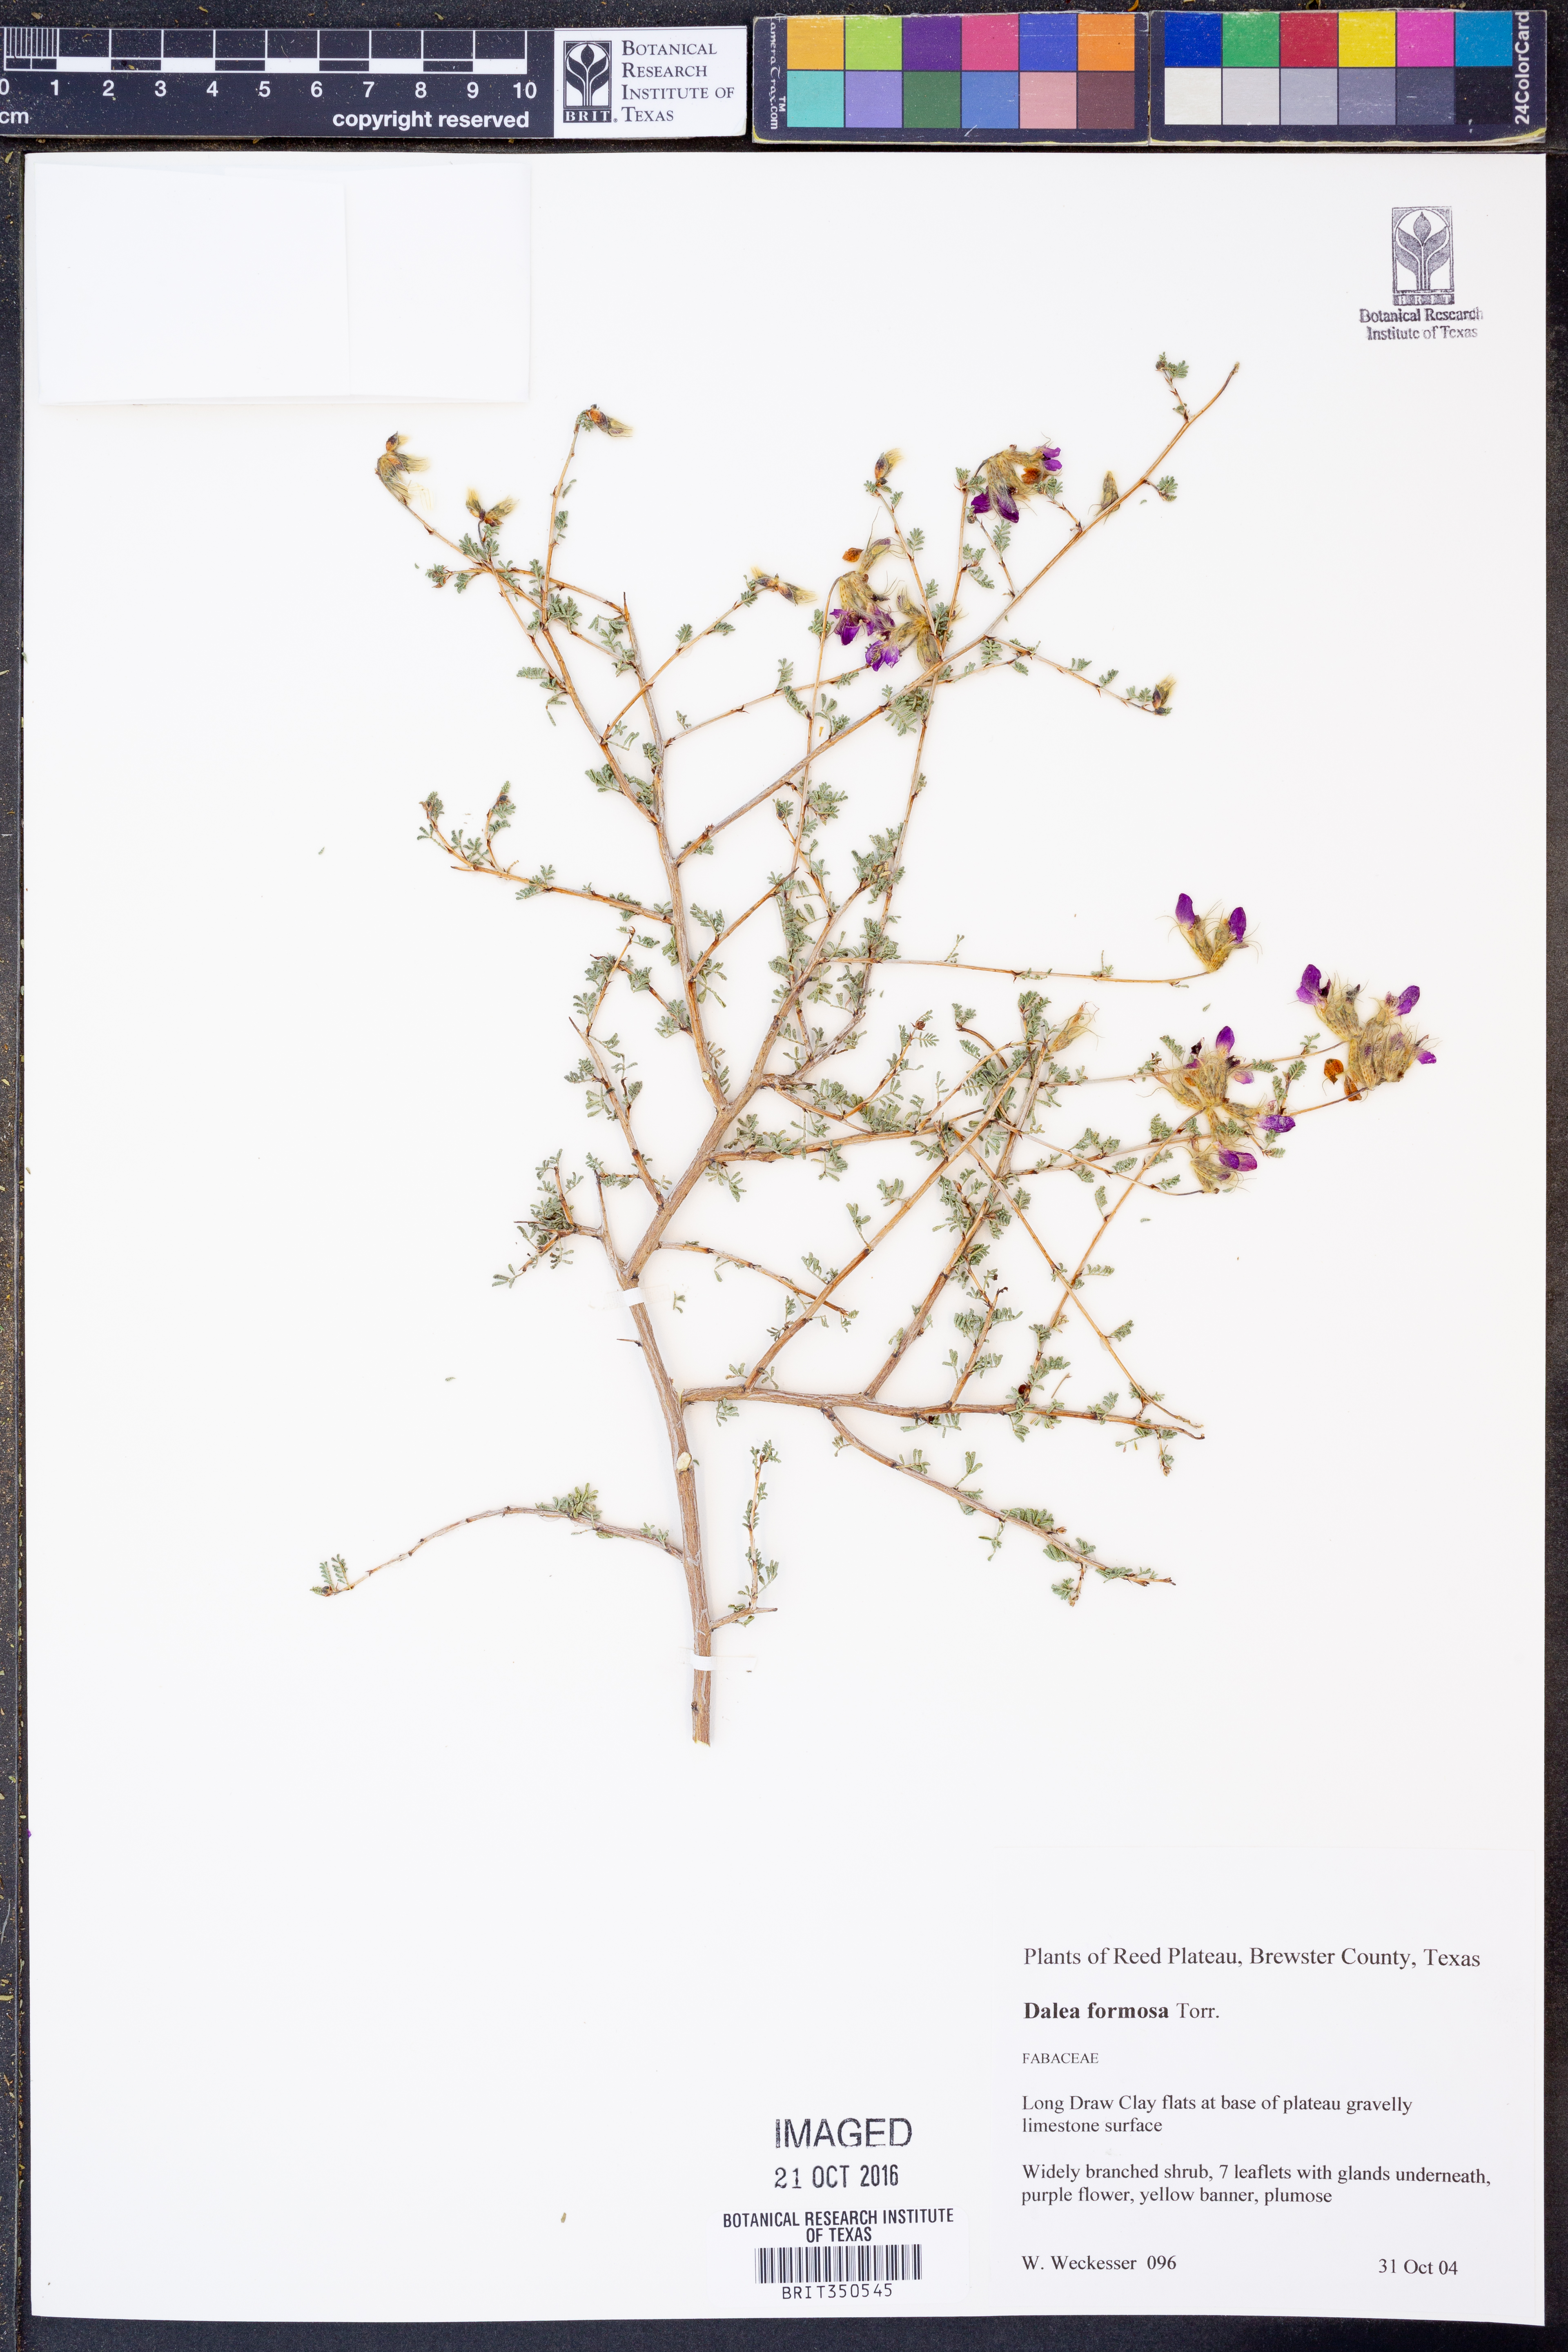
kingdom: Plantae
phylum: Tracheophyta
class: Magnoliopsida
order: Fabales
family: Fabaceae
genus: Dalea
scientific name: Dalea formosa
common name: Feather-plume dalea
